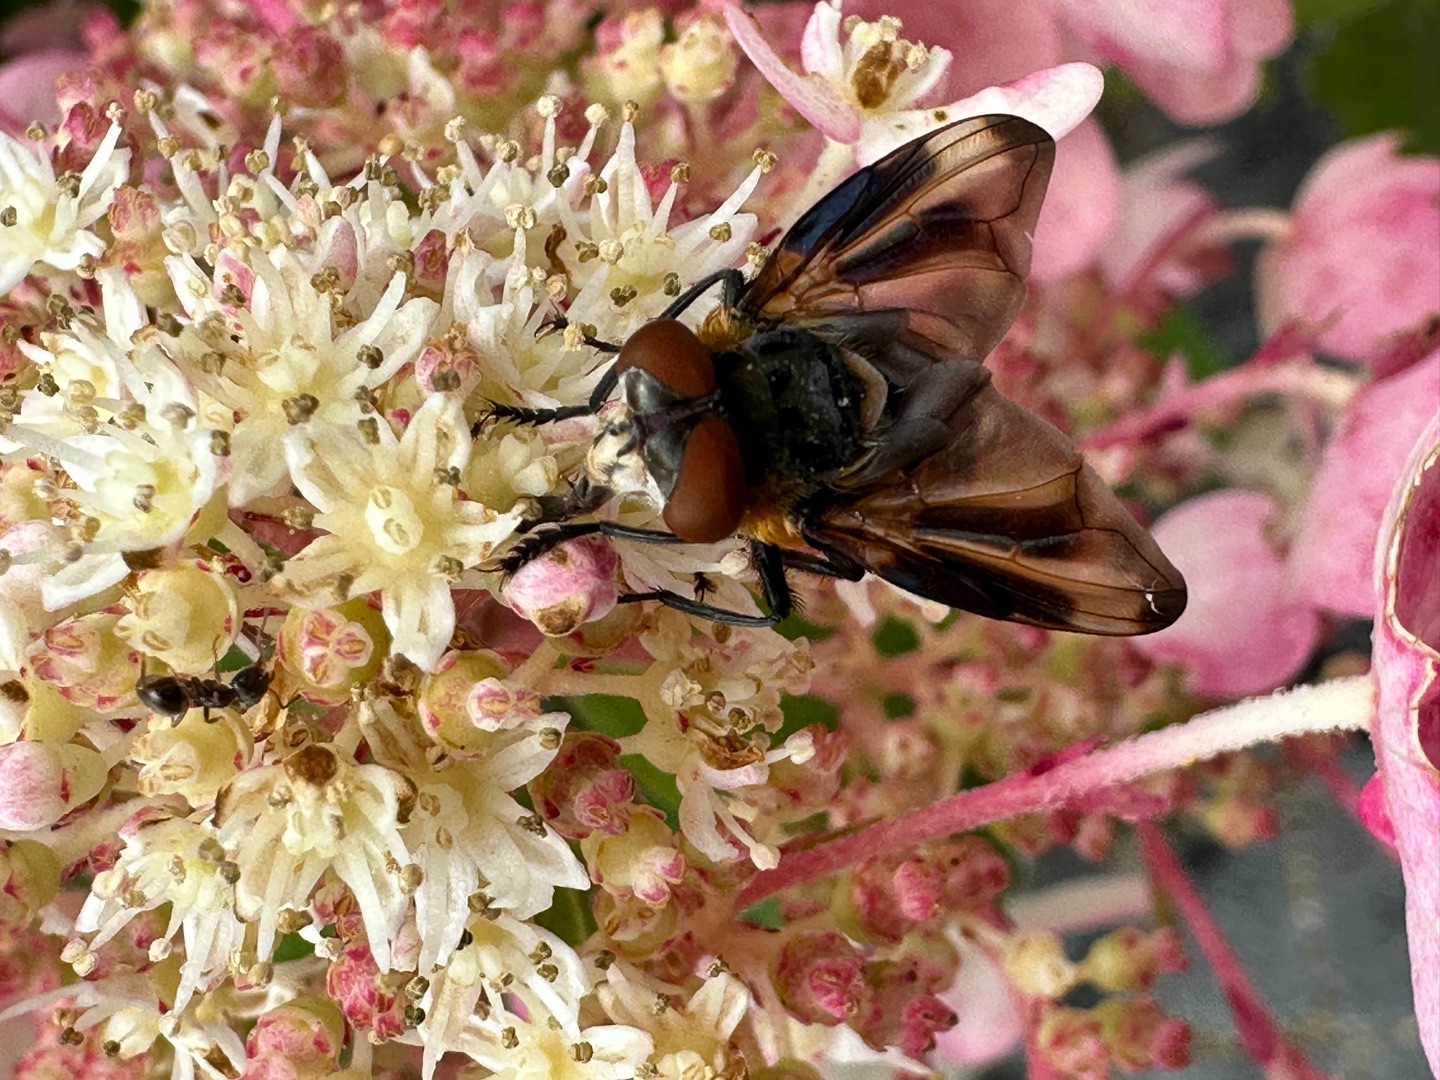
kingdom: Animalia
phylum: Arthropoda
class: Insecta
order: Diptera
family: Tachinidae
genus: Phasia
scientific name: Phasia hemiptera
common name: Blåvinget pragtsnylteflue
